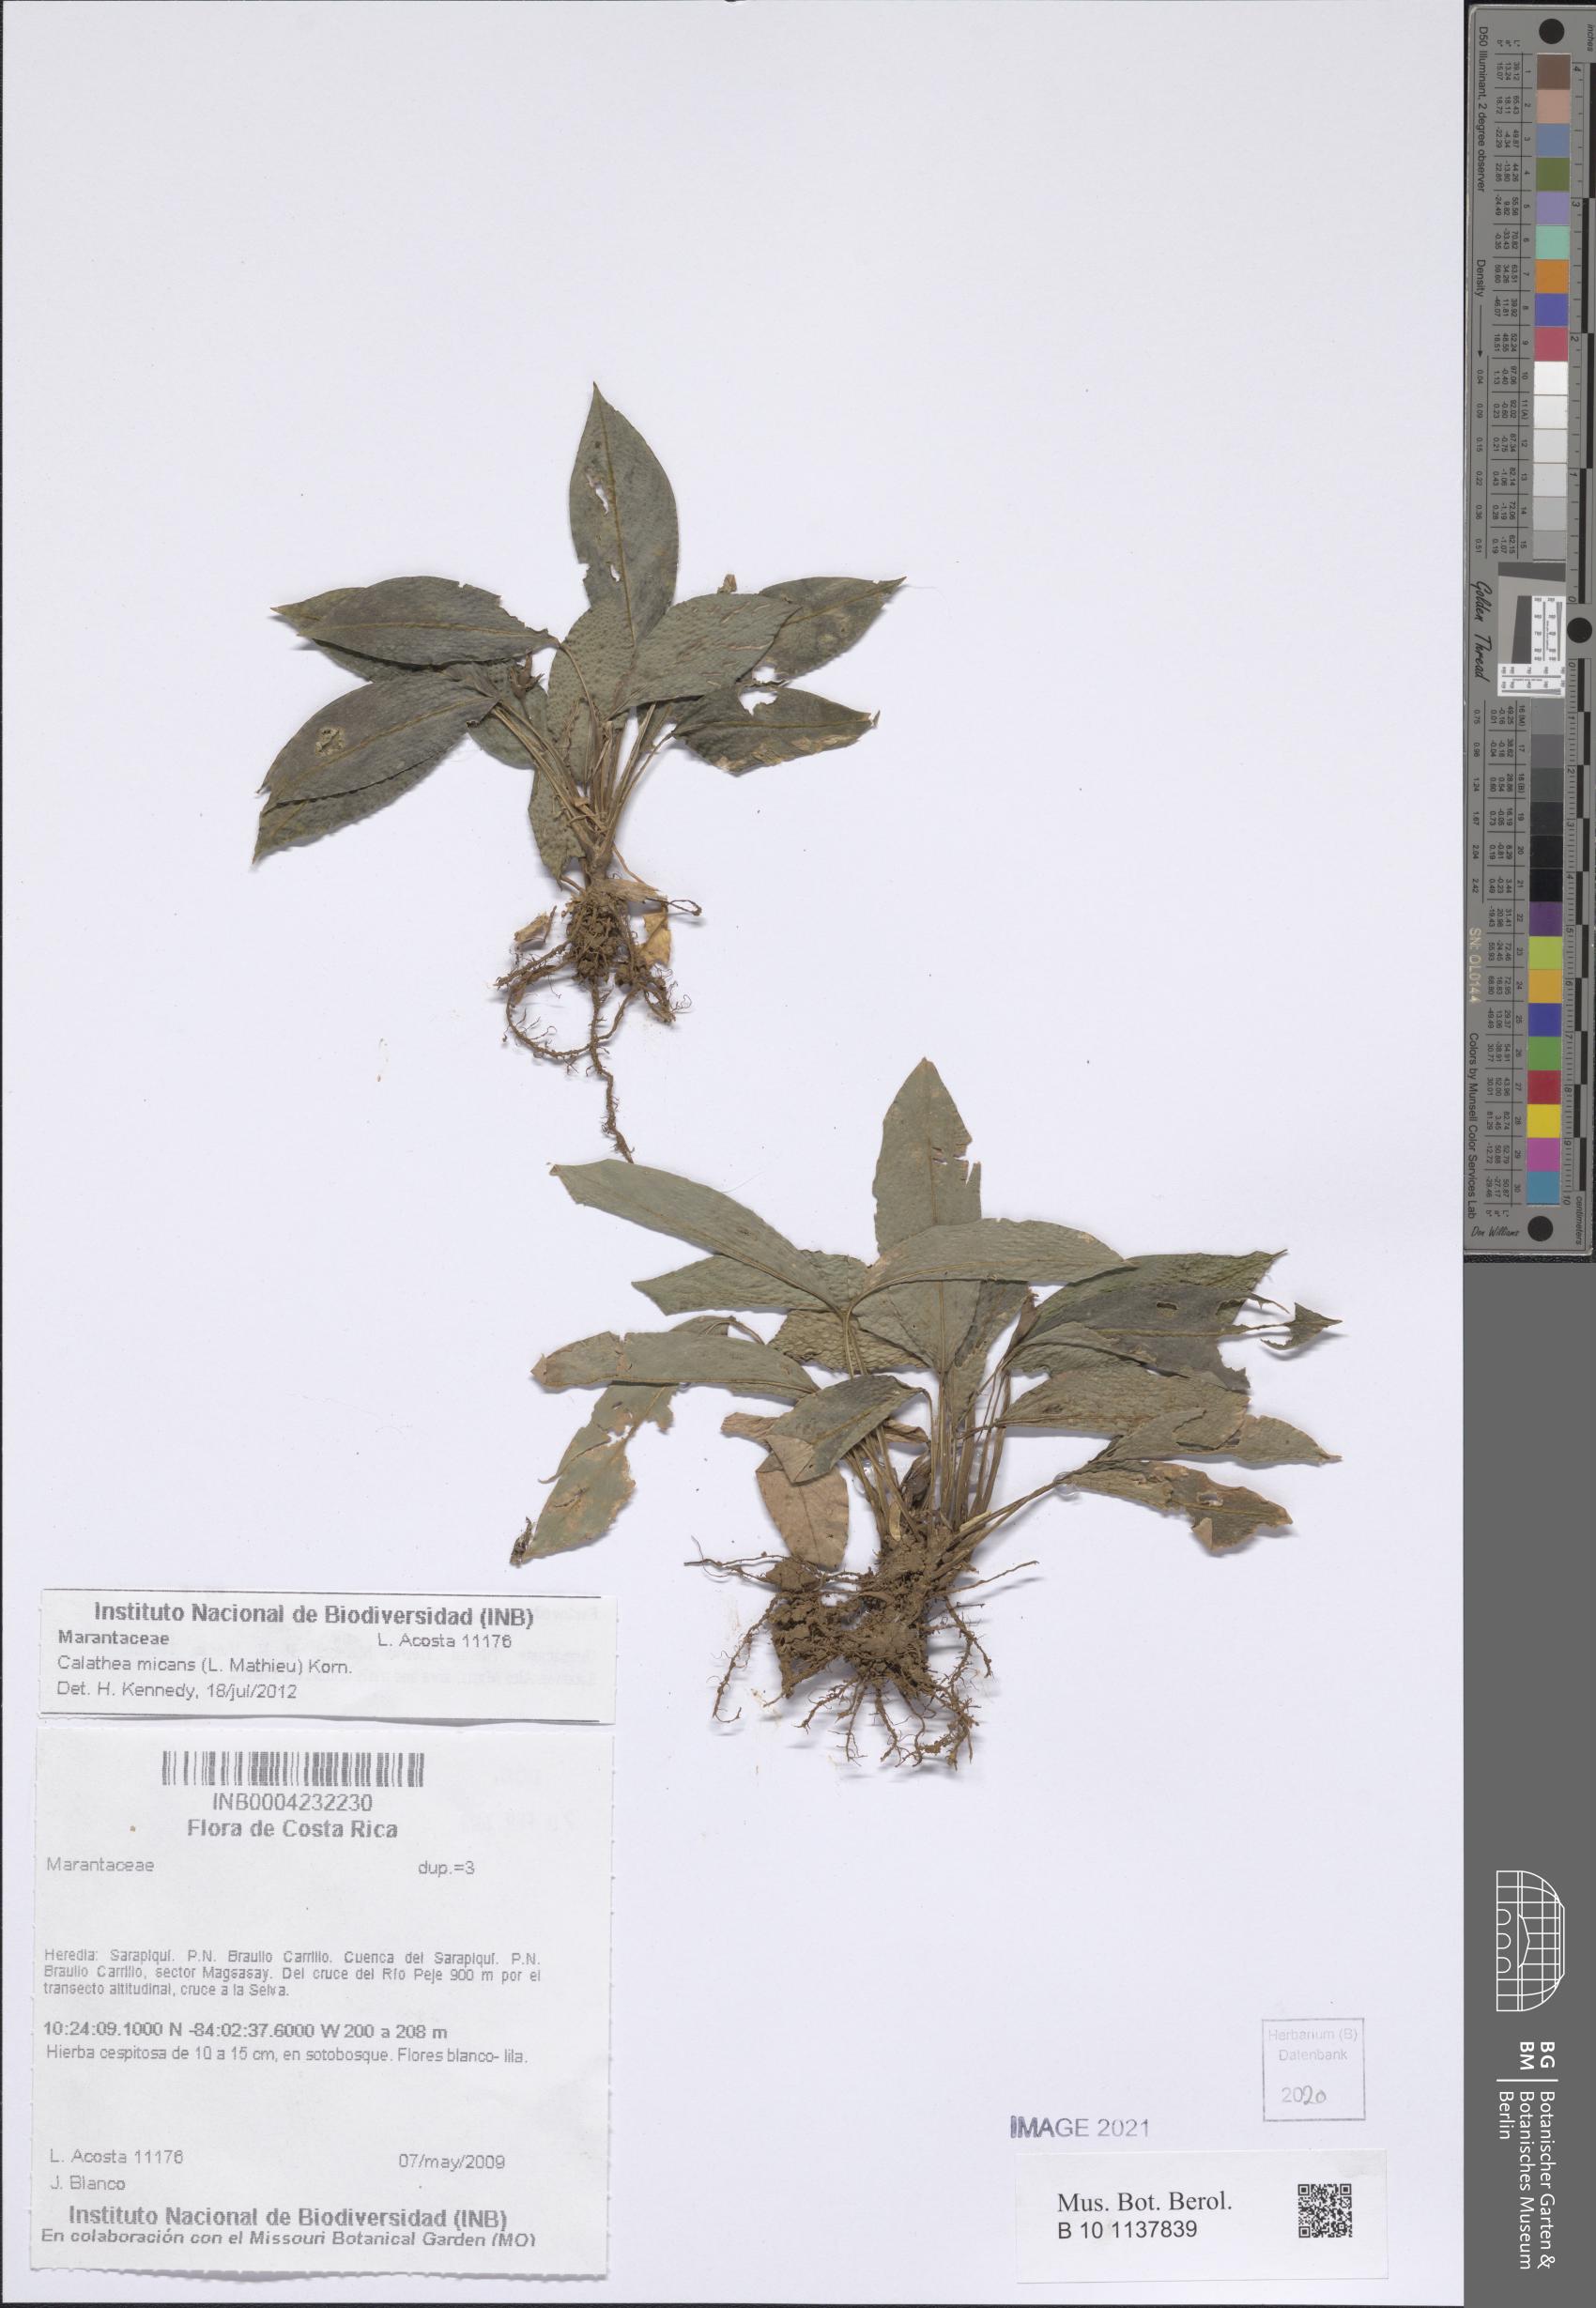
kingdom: Plantae
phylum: Tracheophyta
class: Liliopsida
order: Zingiberales
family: Marantaceae
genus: Goeppertia
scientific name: Goeppertia micans
